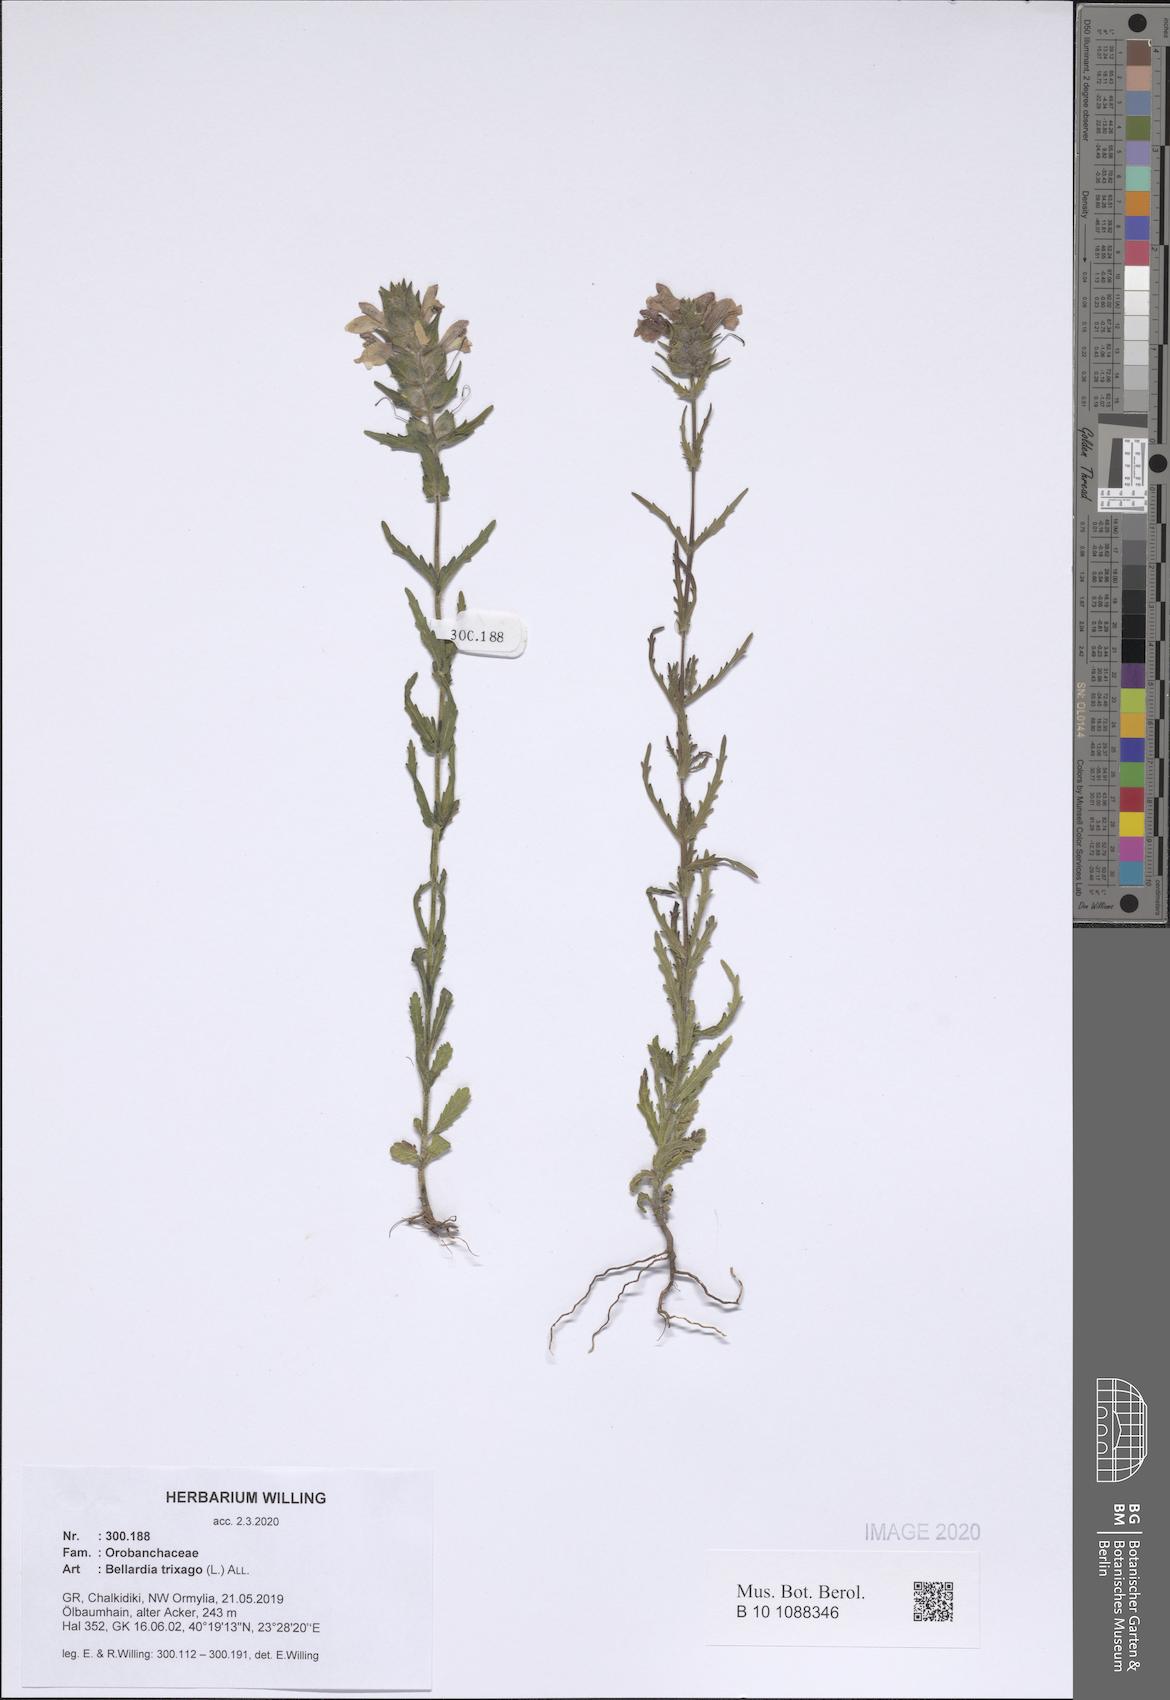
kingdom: Plantae
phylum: Tracheophyta
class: Magnoliopsida
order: Lamiales
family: Orobanchaceae
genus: Bellardia
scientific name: Bellardia trixago
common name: Mediterranean lineseed
